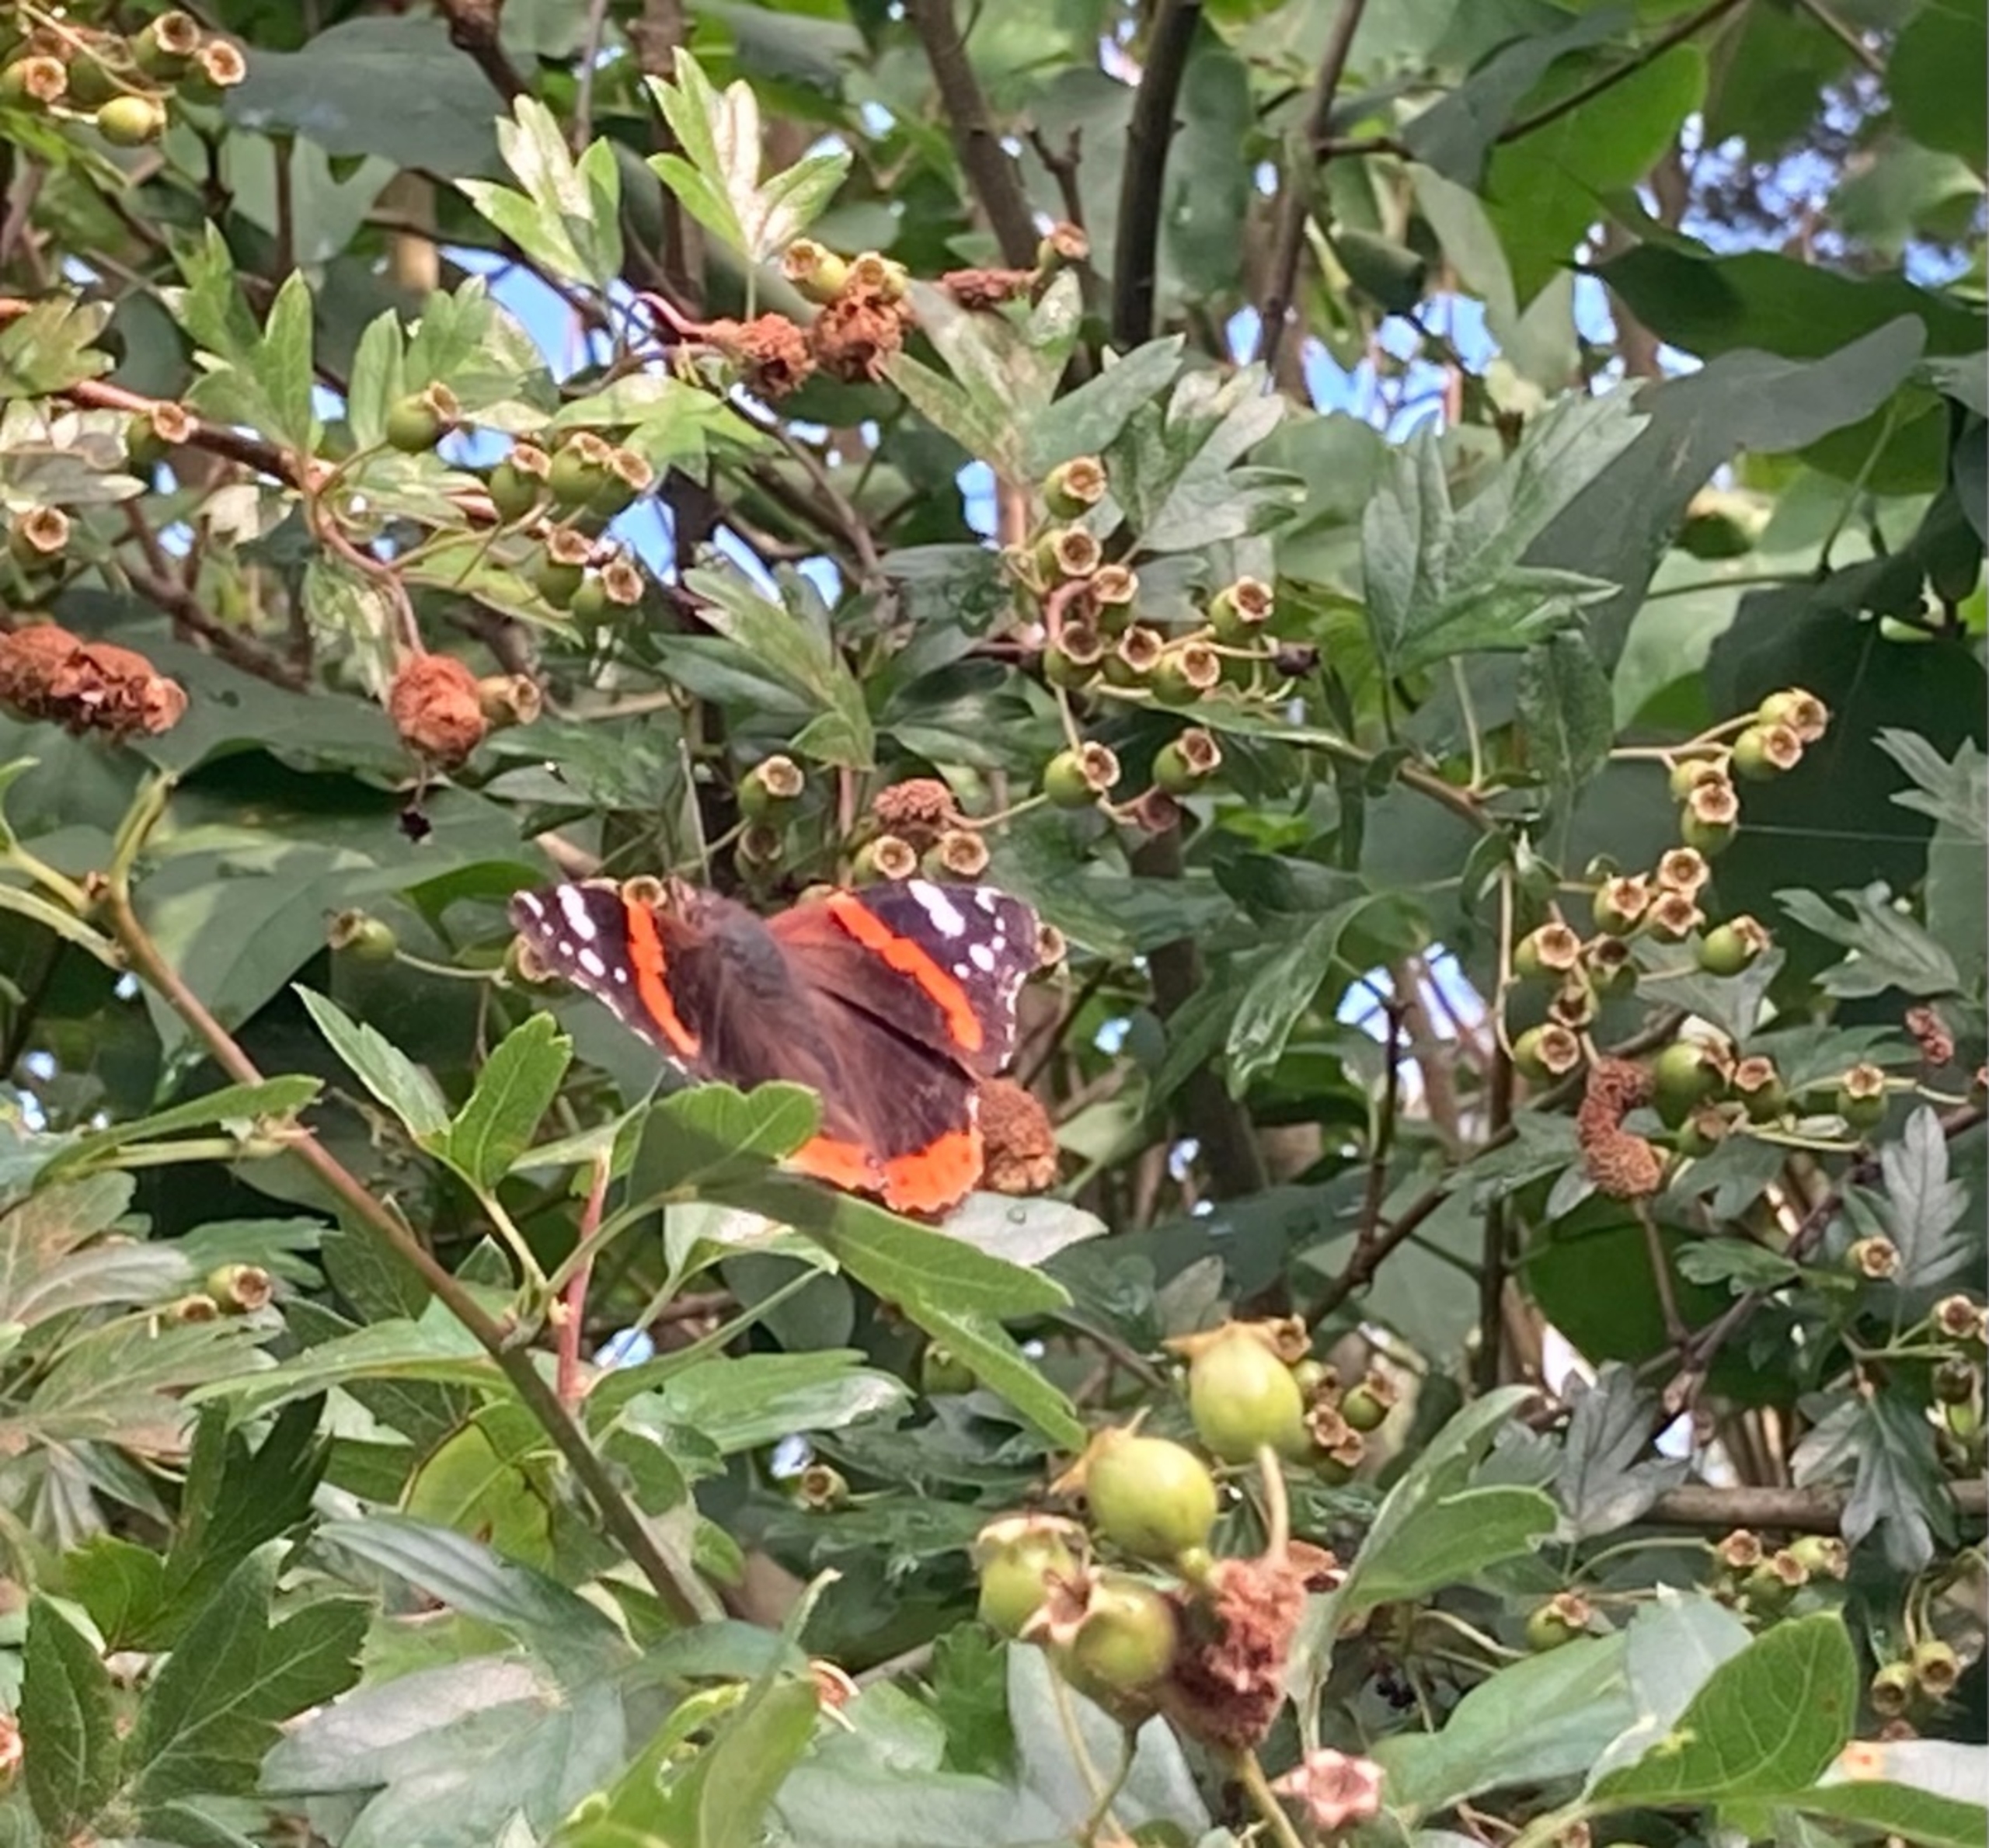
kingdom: Animalia
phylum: Arthropoda
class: Insecta
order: Lepidoptera
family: Nymphalidae
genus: Vanessa
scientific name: Vanessa atalanta
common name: Admiral
